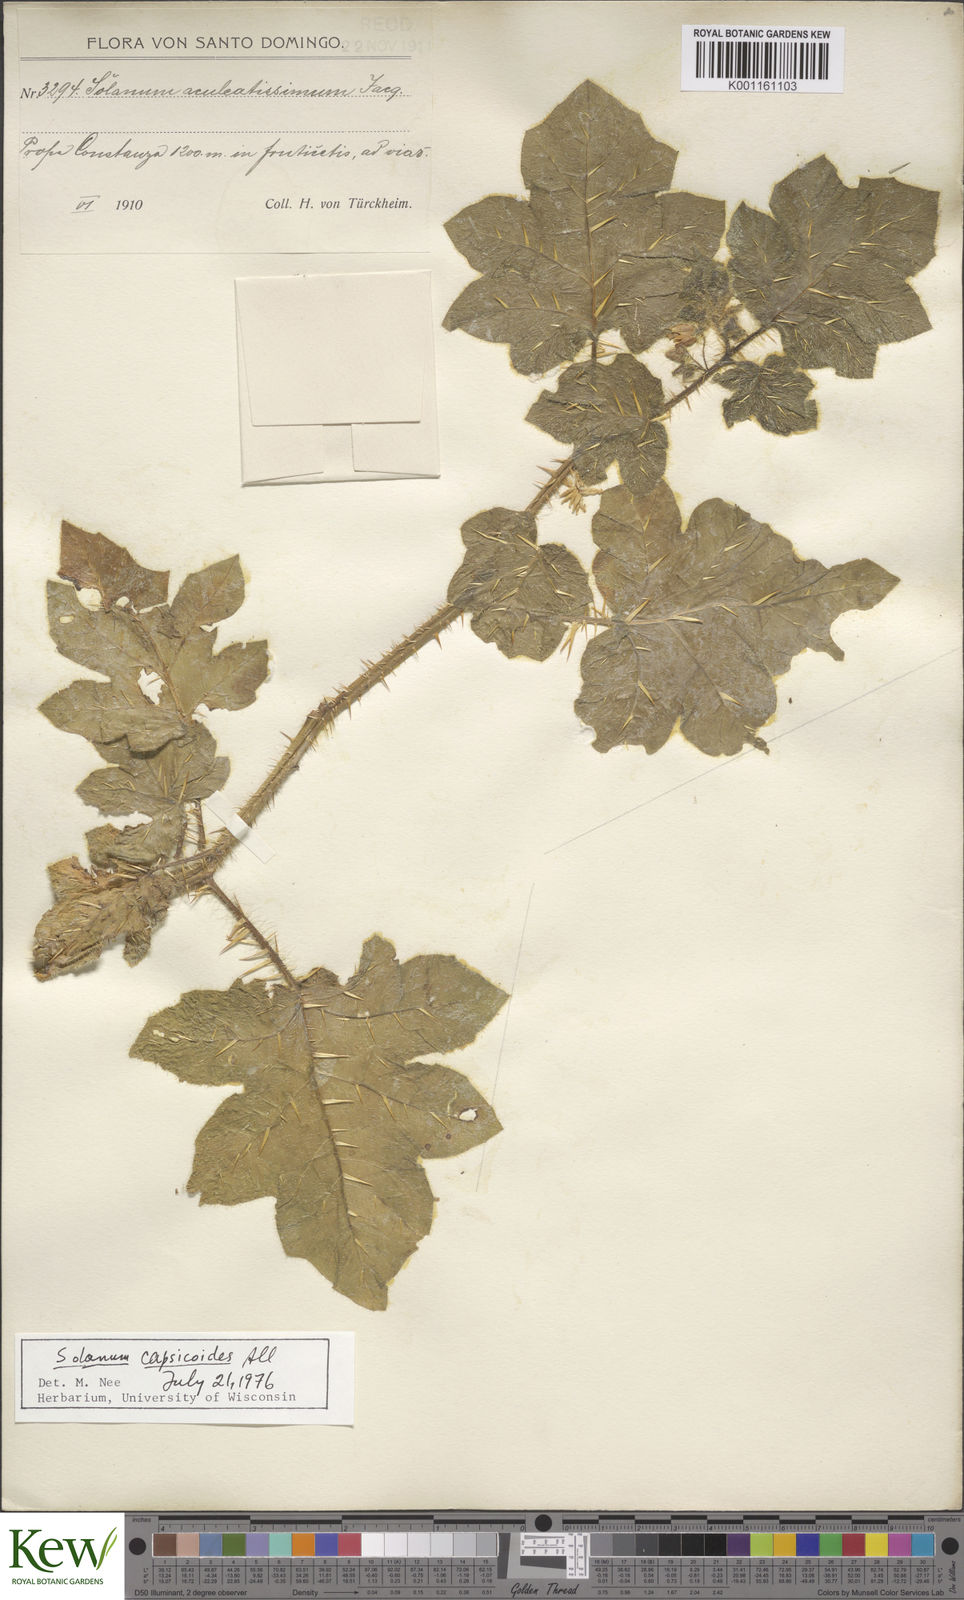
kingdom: Plantae
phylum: Tracheophyta
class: Magnoliopsida
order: Solanales
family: Solanaceae
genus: Solanum
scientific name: Solanum aculeatissimum
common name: Dutch eggplant
